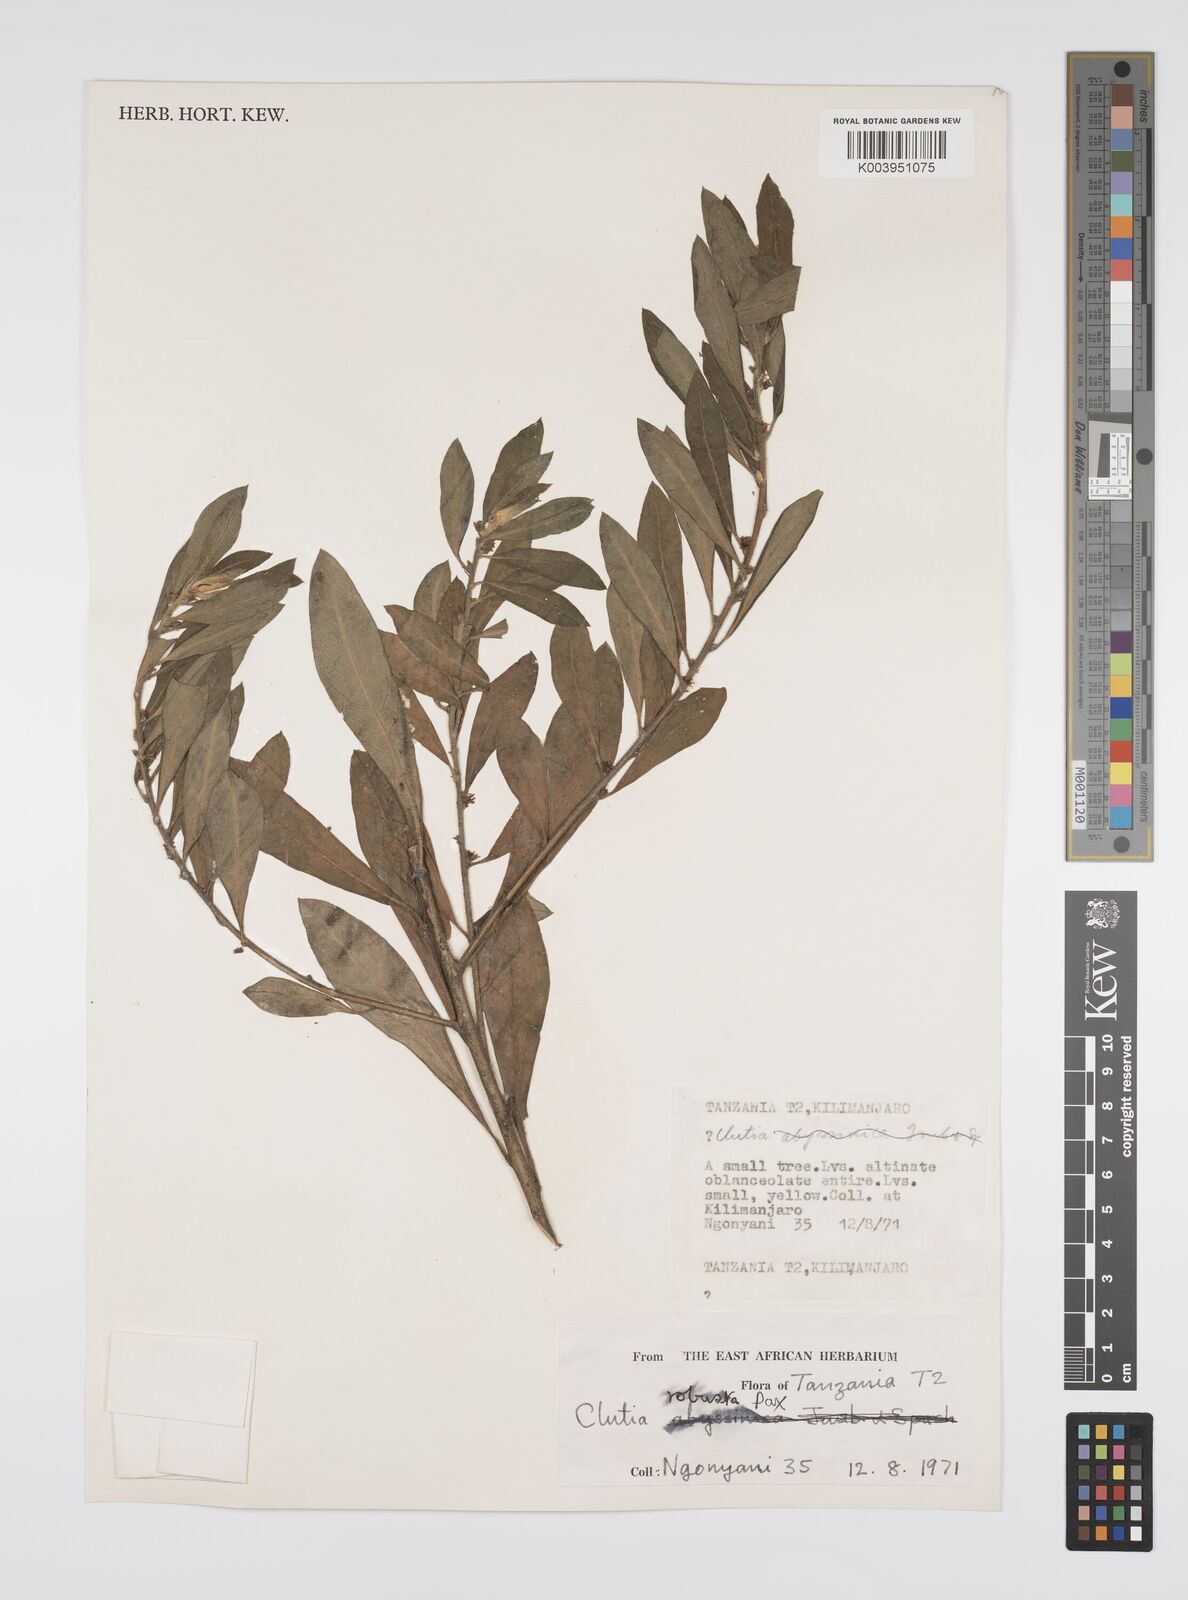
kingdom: Plantae
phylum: Tracheophyta
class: Magnoliopsida
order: Malpighiales
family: Peraceae
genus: Clutia
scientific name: Clutia kilimandscharica
